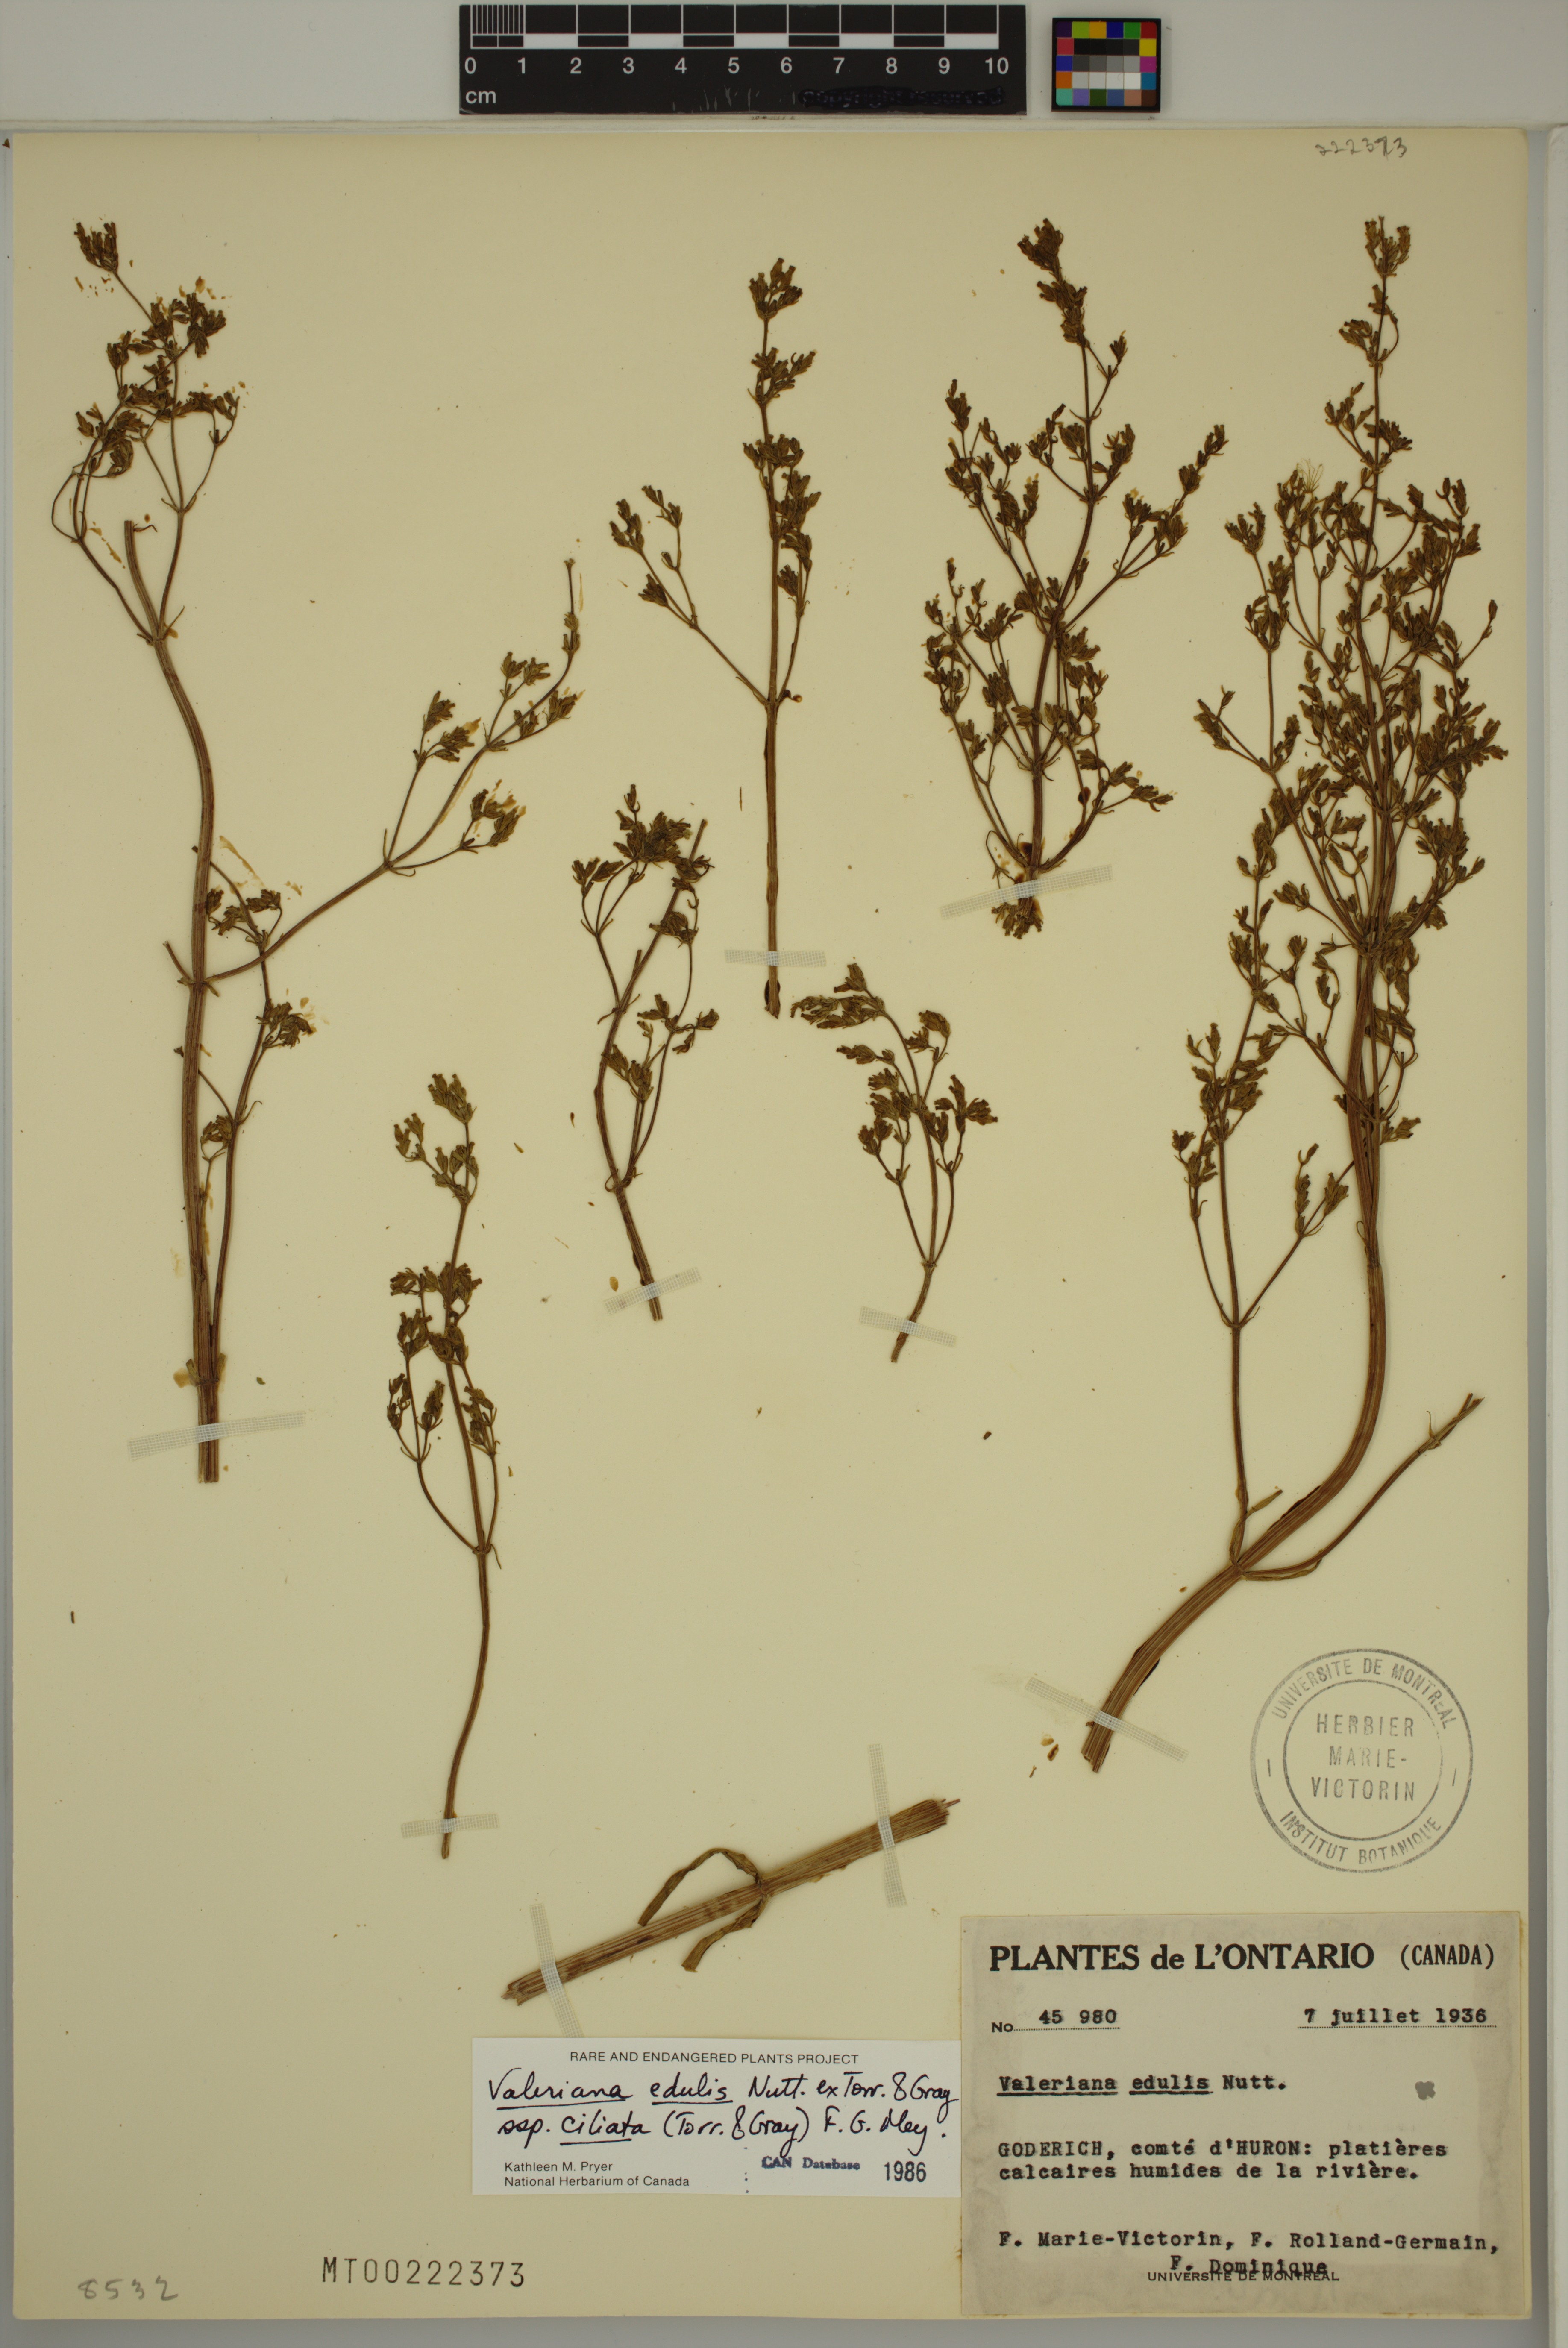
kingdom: Plantae
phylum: Tracheophyta
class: Magnoliopsida
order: Dipsacales
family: Caprifoliaceae
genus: Valeriana
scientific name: Valeriana edulis
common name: Taproot valerian
